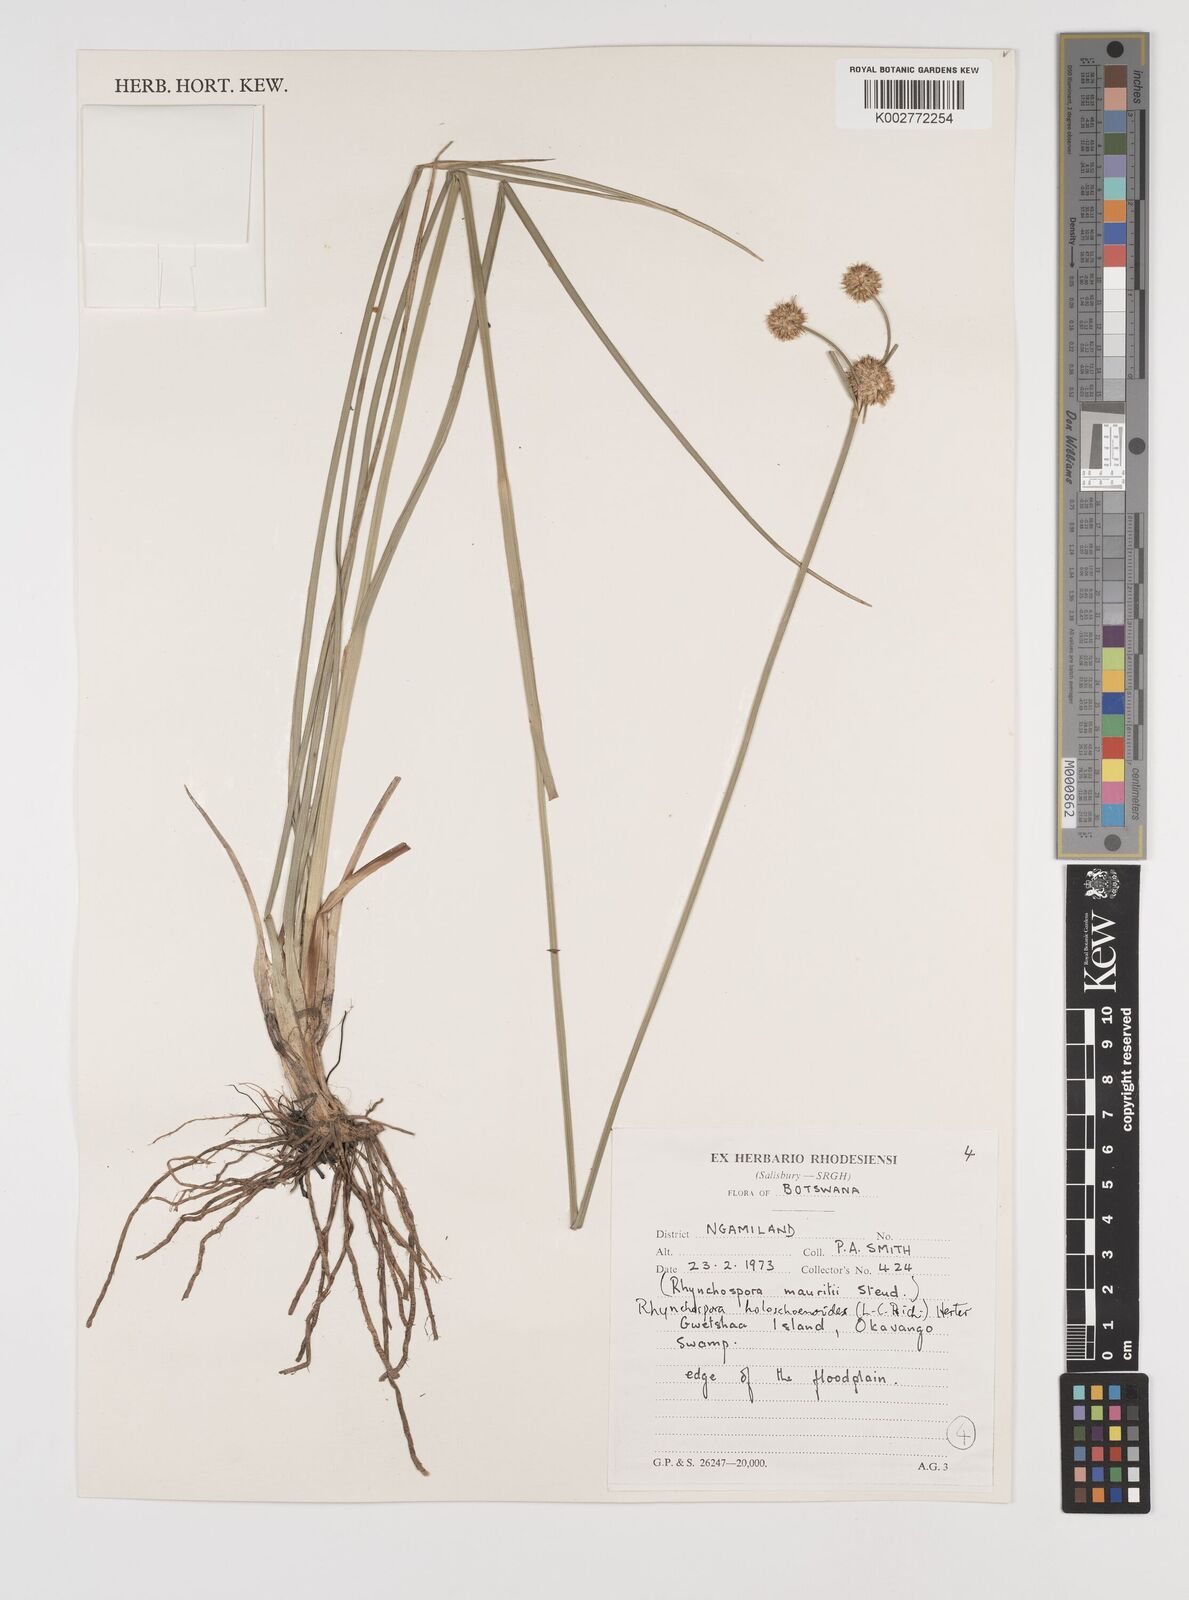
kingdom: Plantae
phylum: Tracheophyta
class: Liliopsida
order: Poales
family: Cyperaceae
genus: Rhynchospora
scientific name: Rhynchospora holoschoenoides
